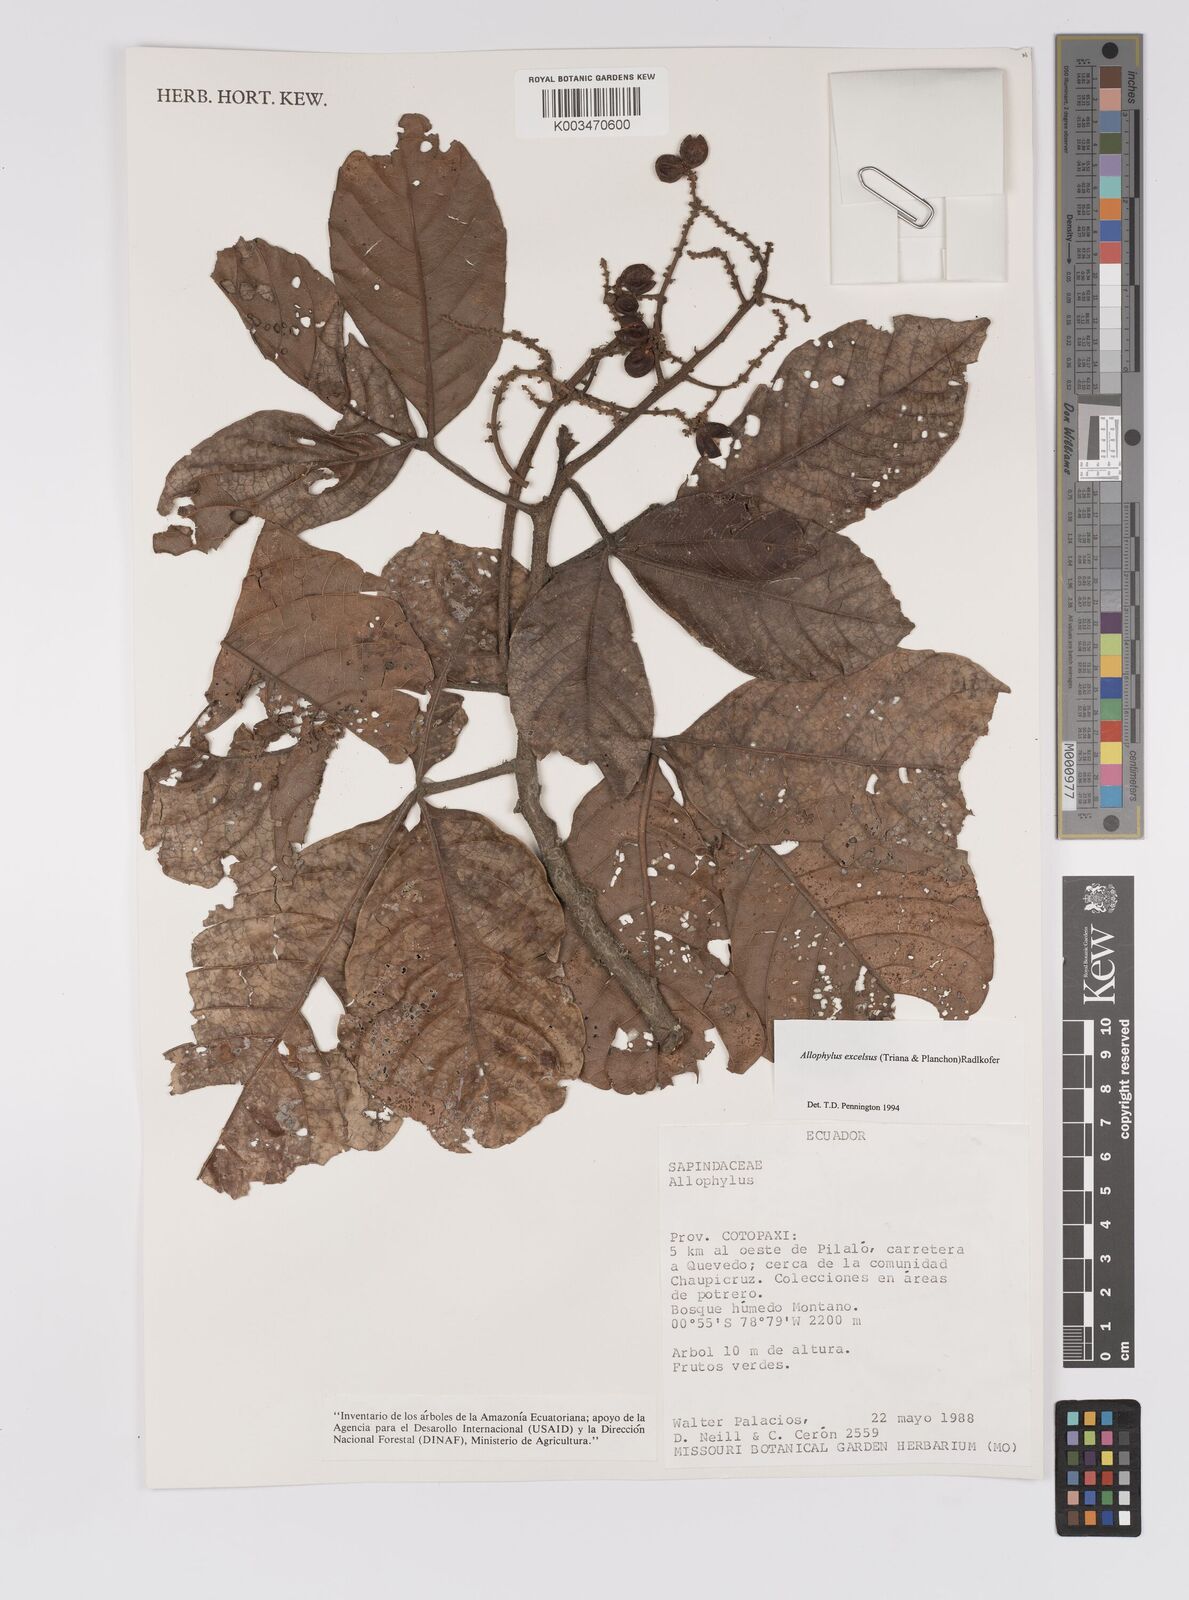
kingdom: Plantae
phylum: Tracheophyta
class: Magnoliopsida
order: Sapindales
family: Sapindaceae
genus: Allophylus
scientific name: Allophylus excelsus
